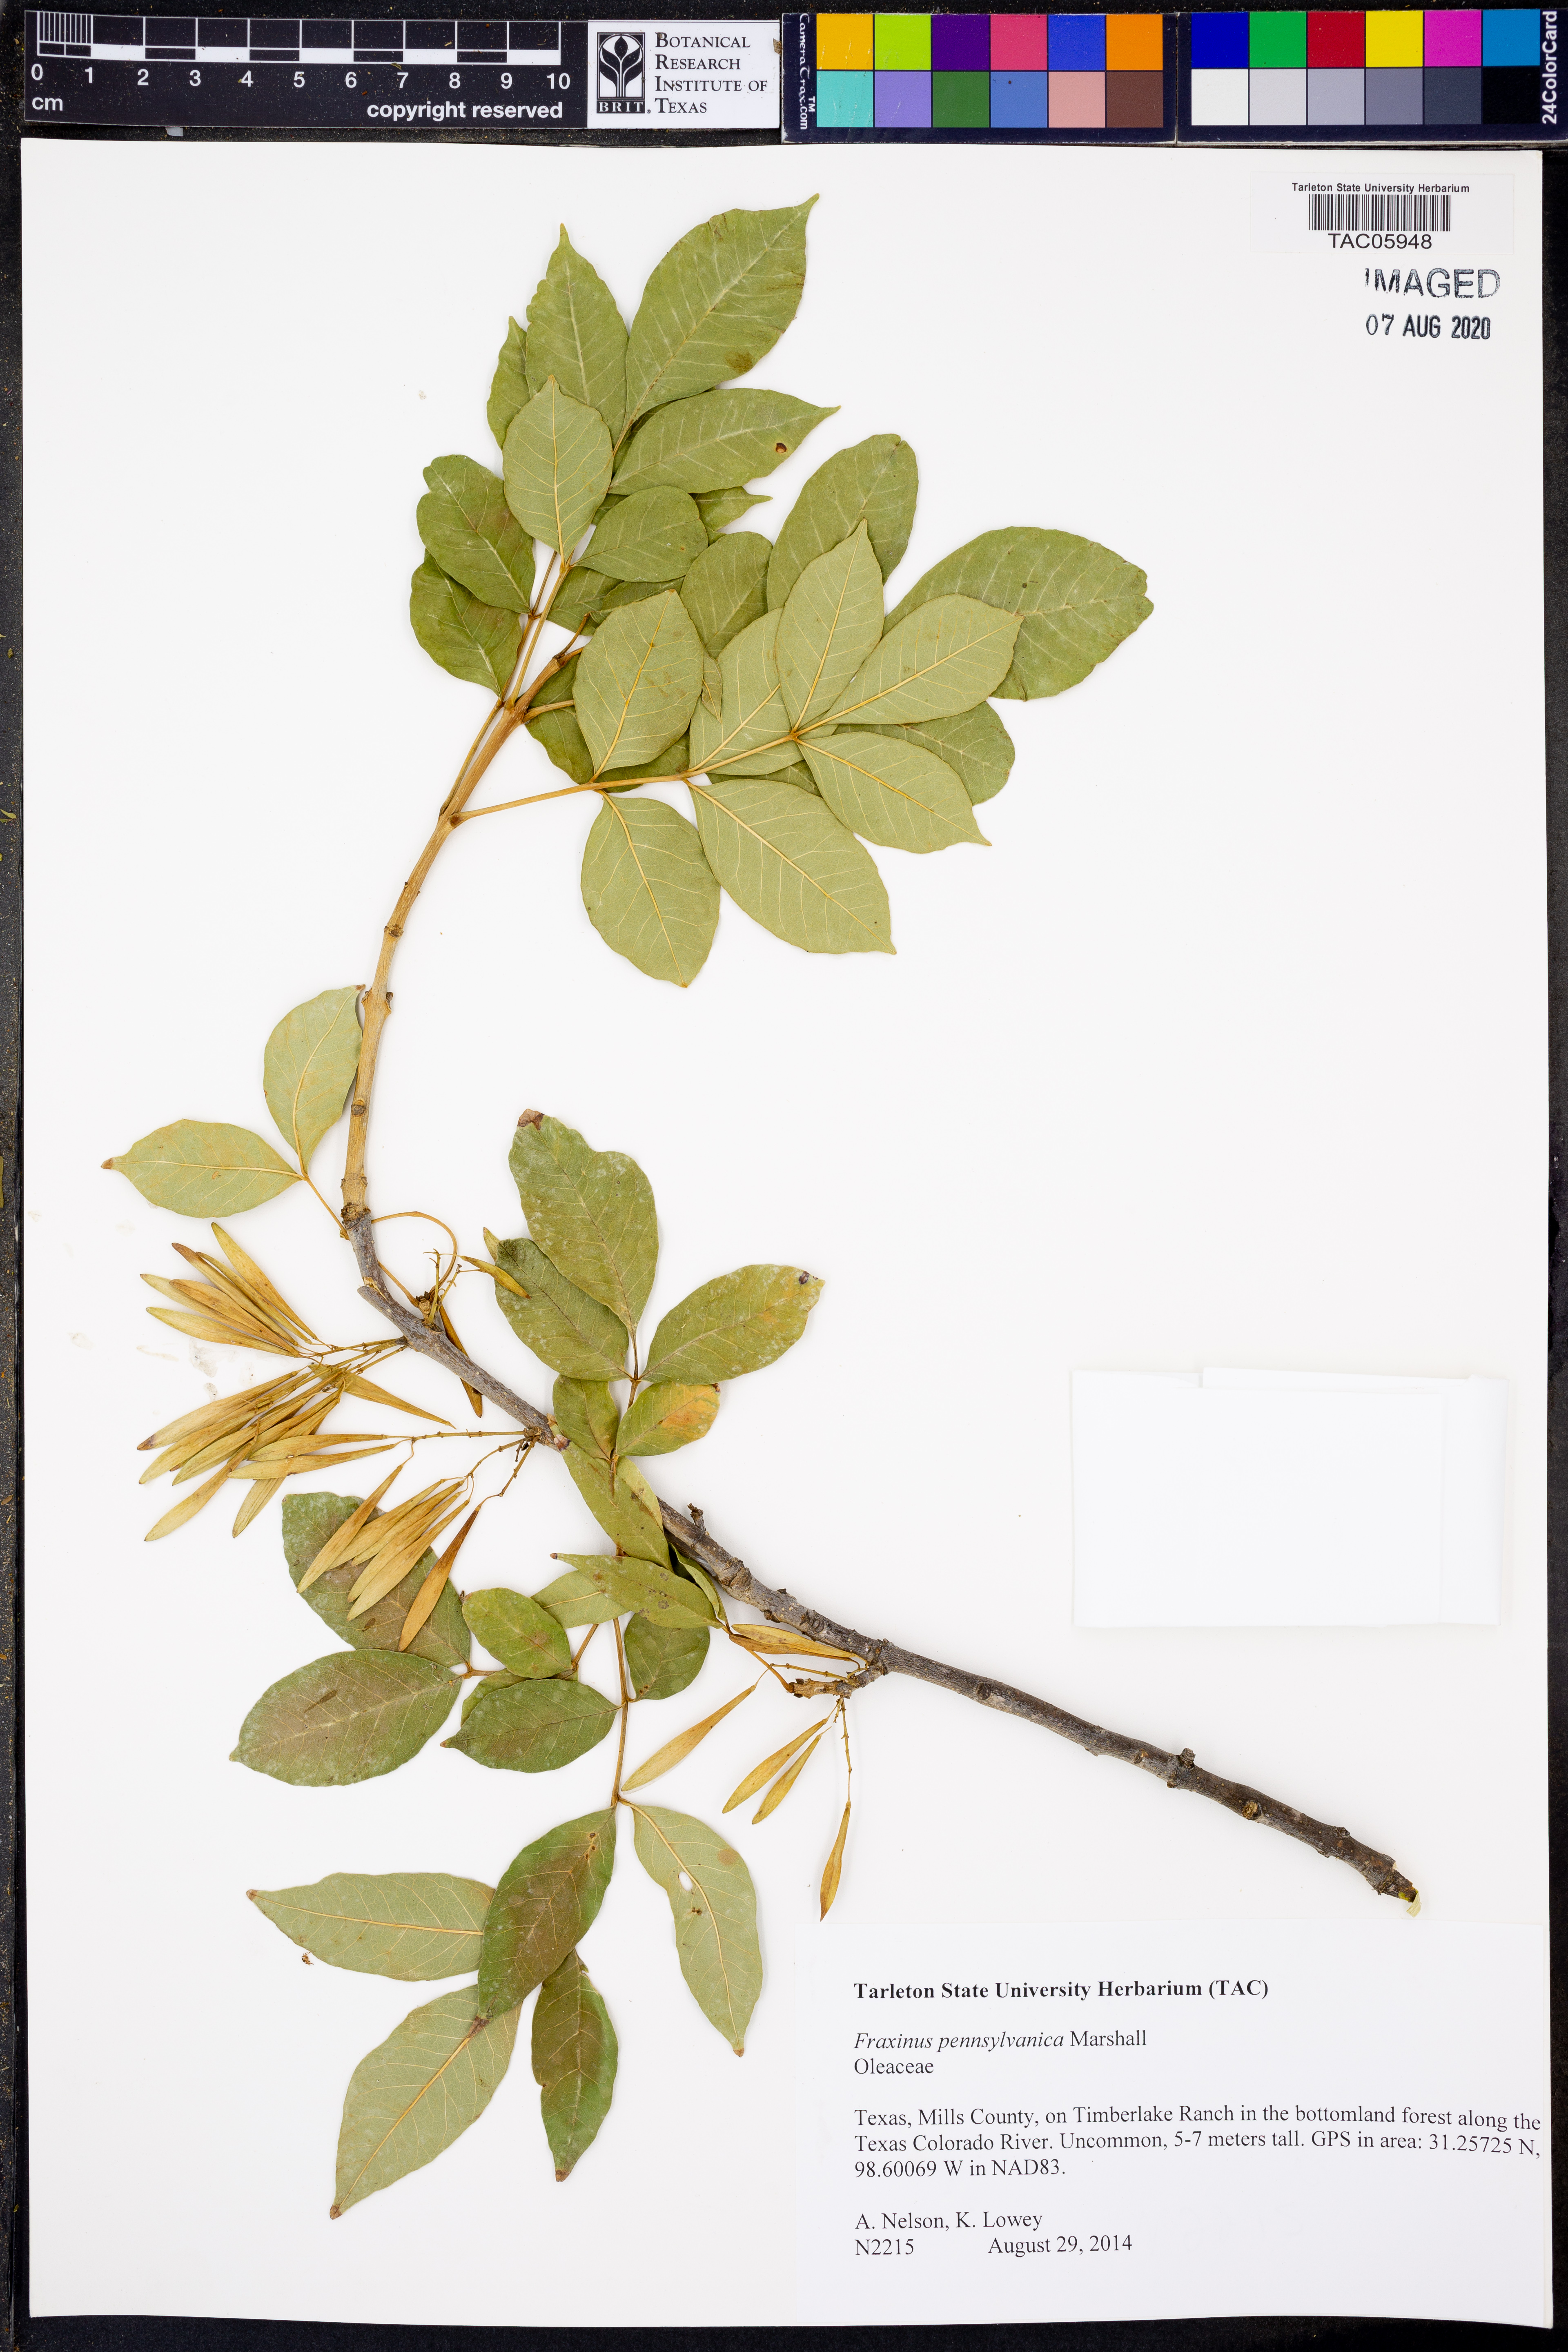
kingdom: Plantae
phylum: Tracheophyta
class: Magnoliopsida
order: Lamiales
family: Oleaceae
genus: Fraxinus
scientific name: Fraxinus pennsylvanica
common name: Green ash
